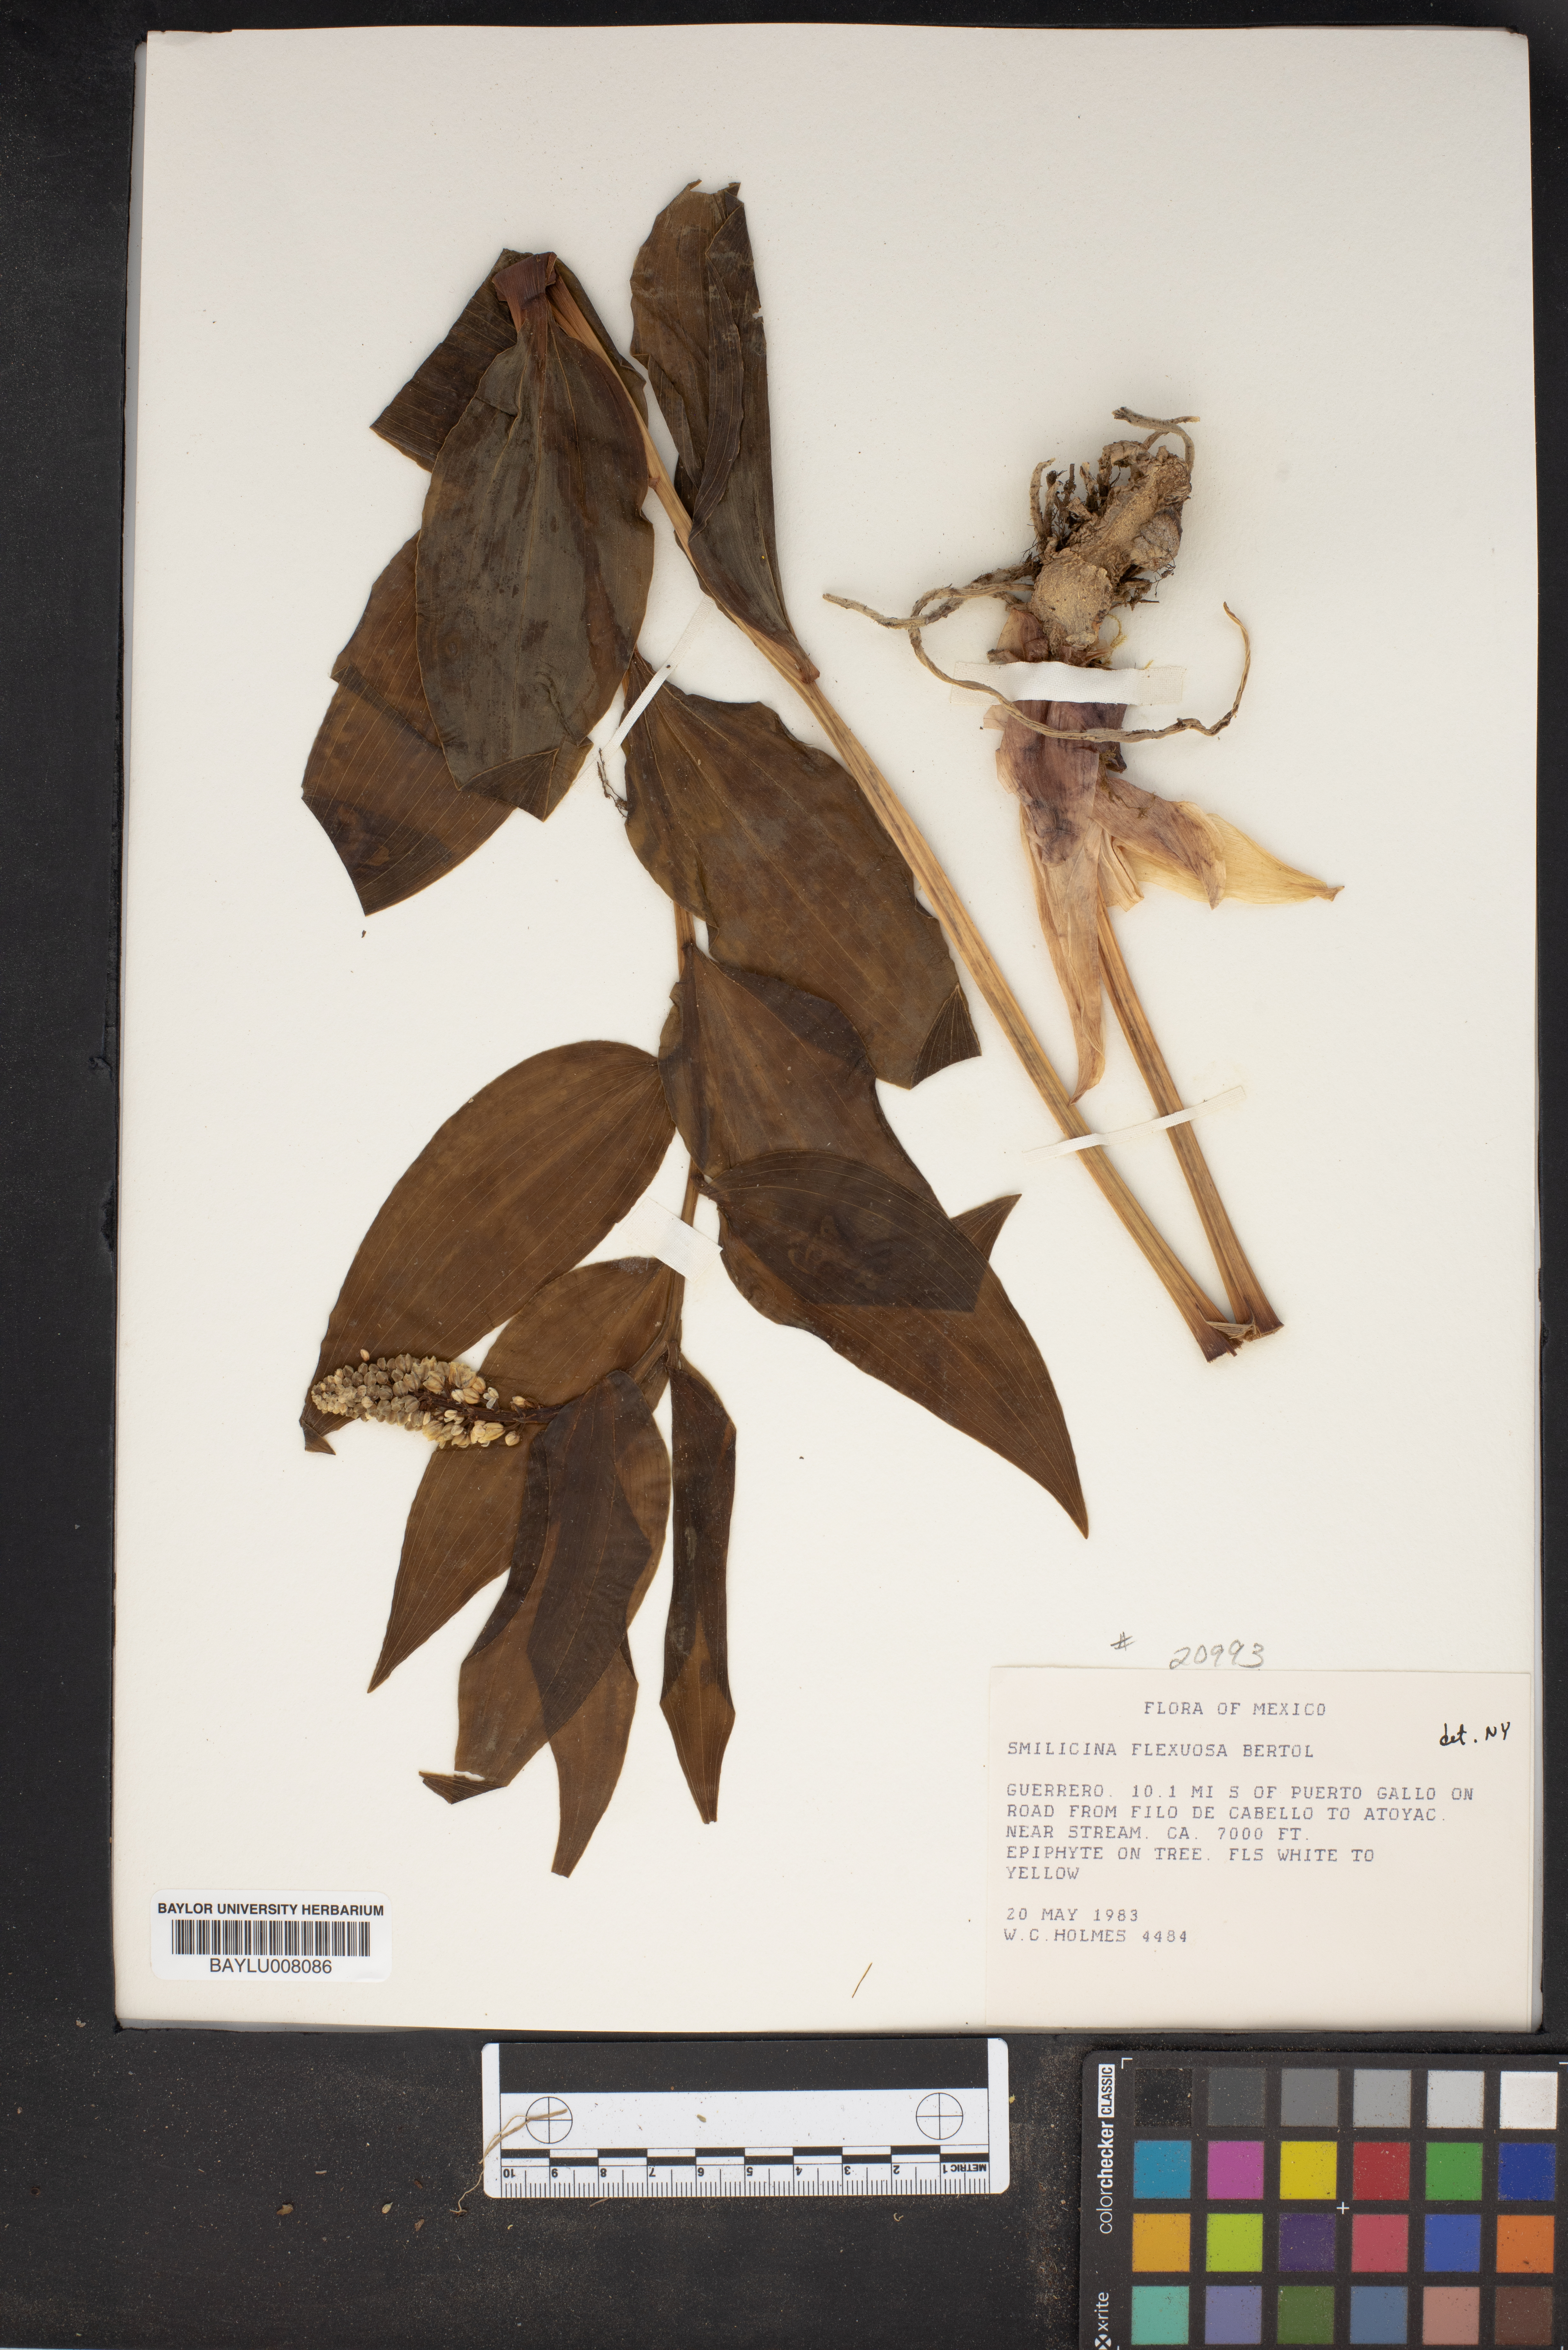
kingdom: Plantae
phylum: Tracheophyta
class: Liliopsida
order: Asparagales
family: Asparagaceae
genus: Maianthemum
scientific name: Maianthemum flexuosum
